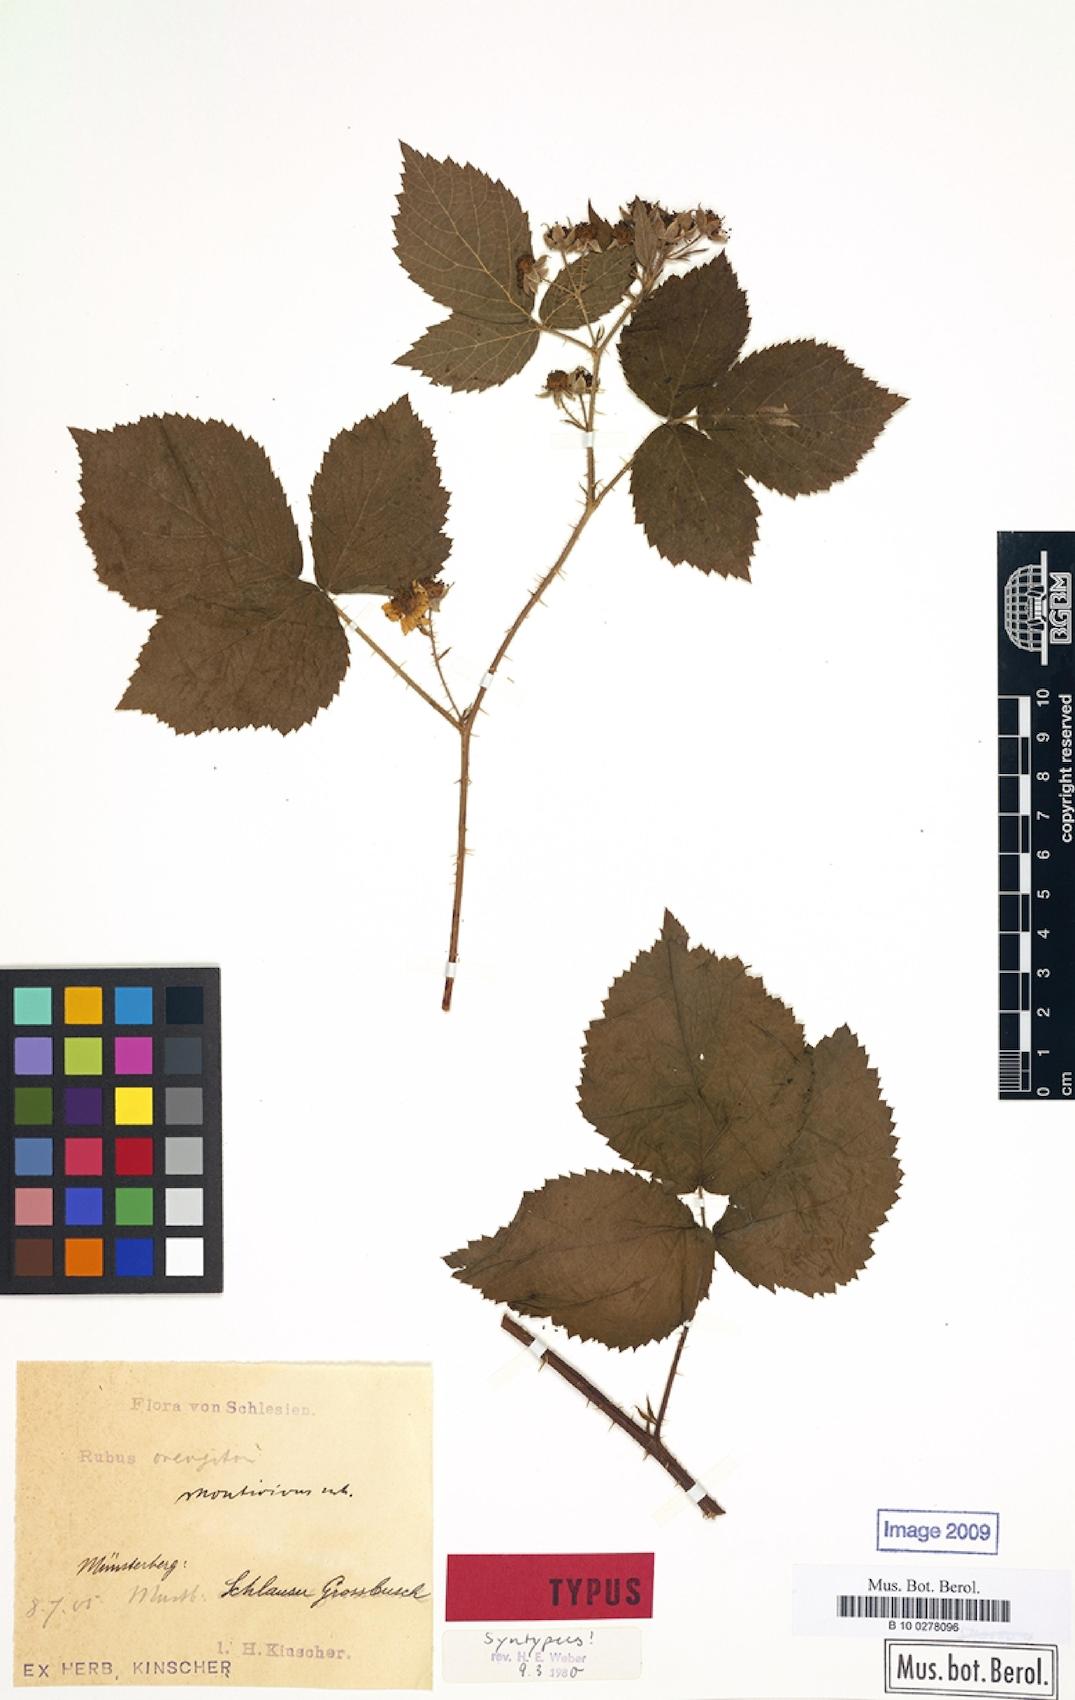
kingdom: Plantae
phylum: Tracheophyta
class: Magnoliopsida
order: Rosales
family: Rosaceae
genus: Rubus
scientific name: Rubus dollnensis
